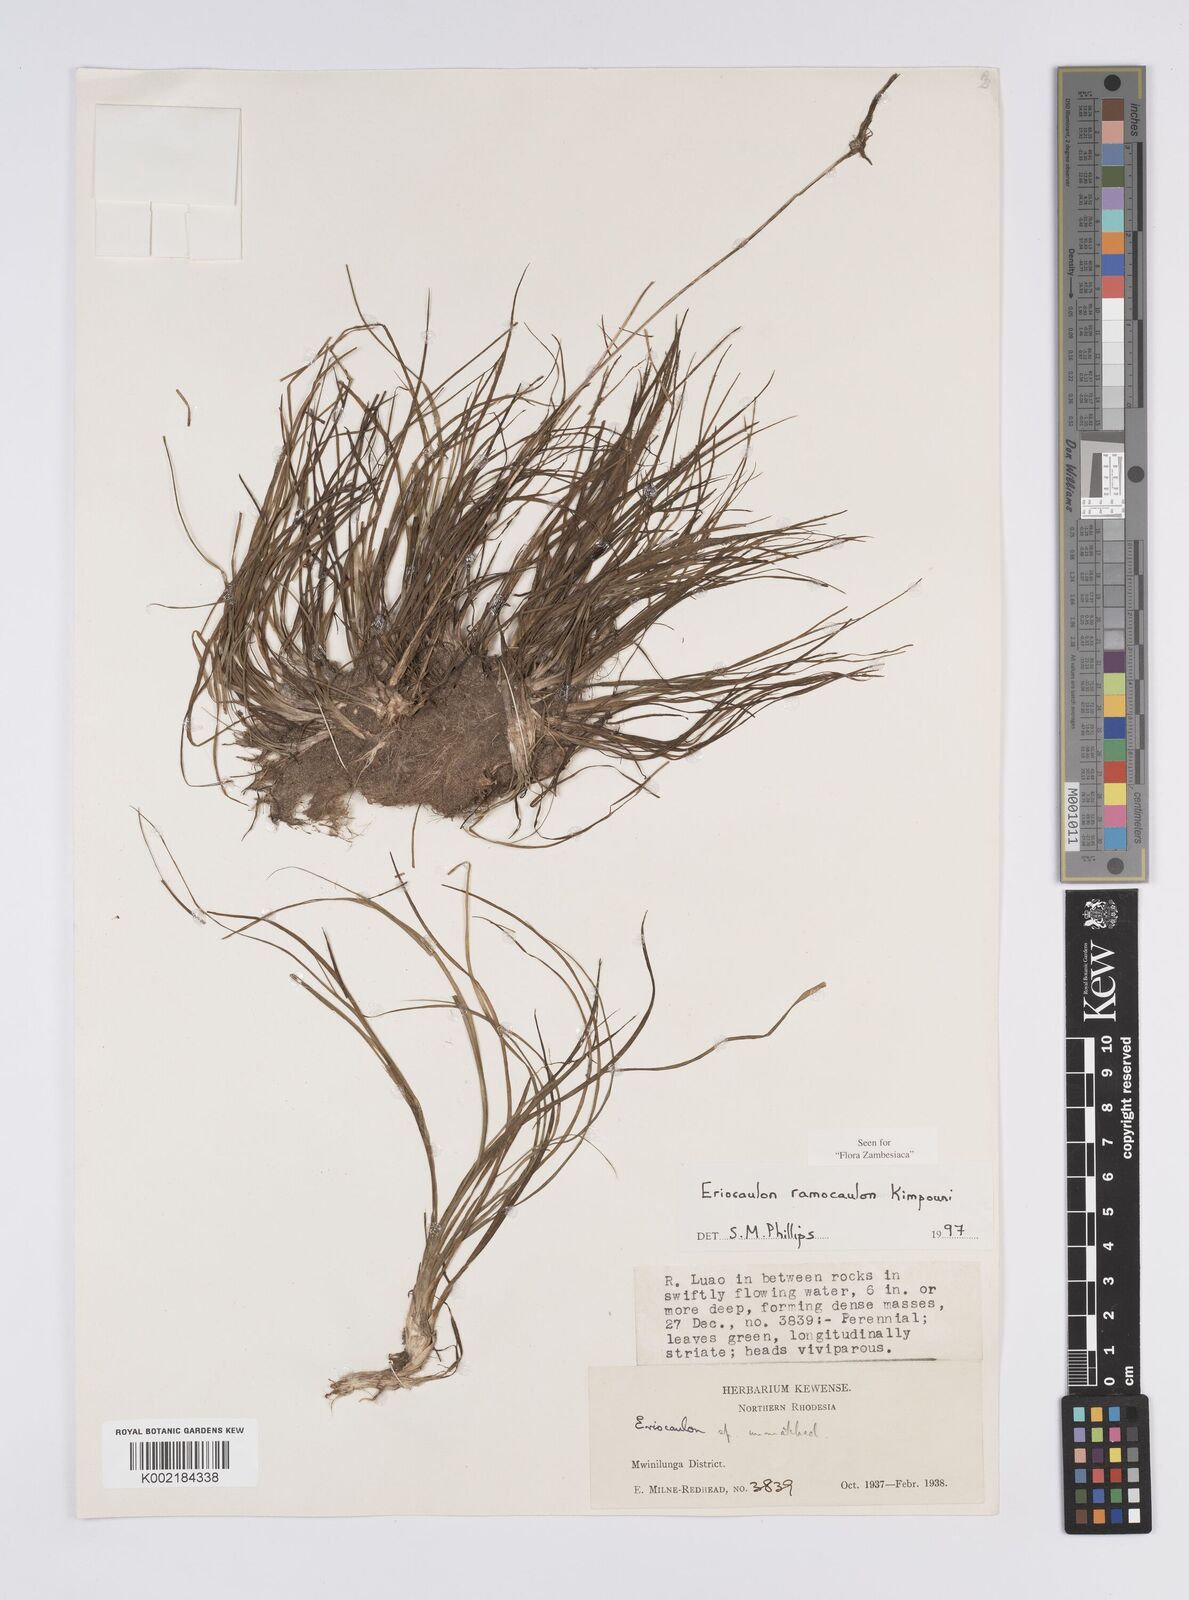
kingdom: Plantae
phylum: Tracheophyta
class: Liliopsida
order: Poales
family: Eriocaulaceae
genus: Eriocaulon
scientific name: Eriocaulon ramocaulon
